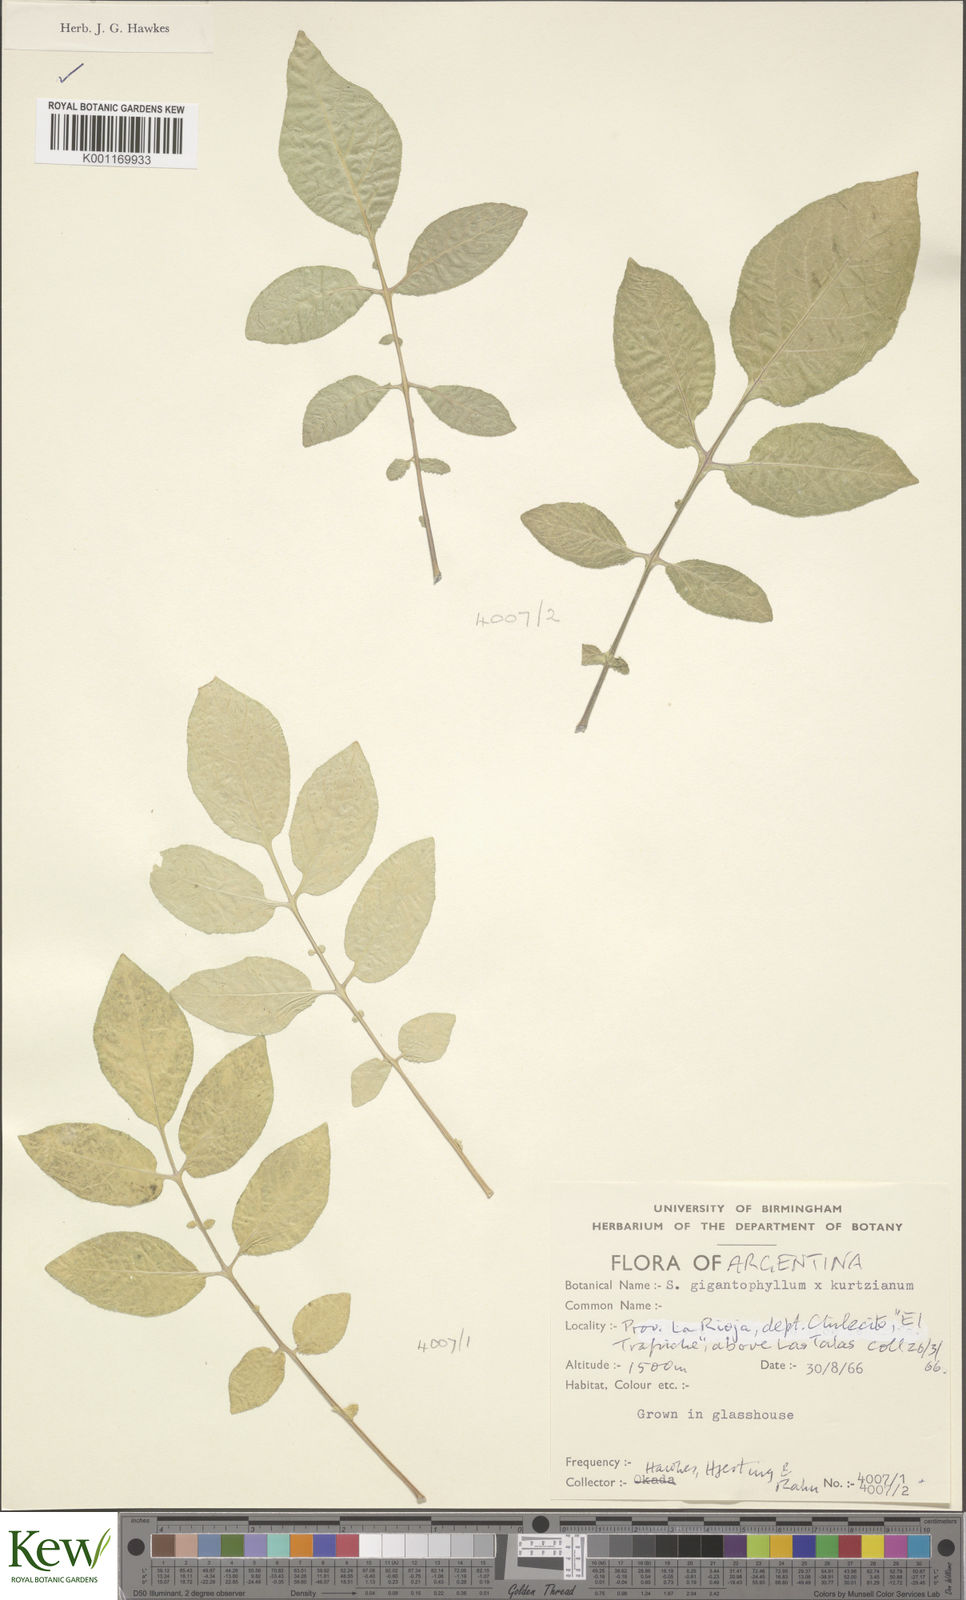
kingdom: Plantae
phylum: Tracheophyta
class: Magnoliopsida
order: Solanales
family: Solanaceae
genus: Solanum
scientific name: Solanum rechei
